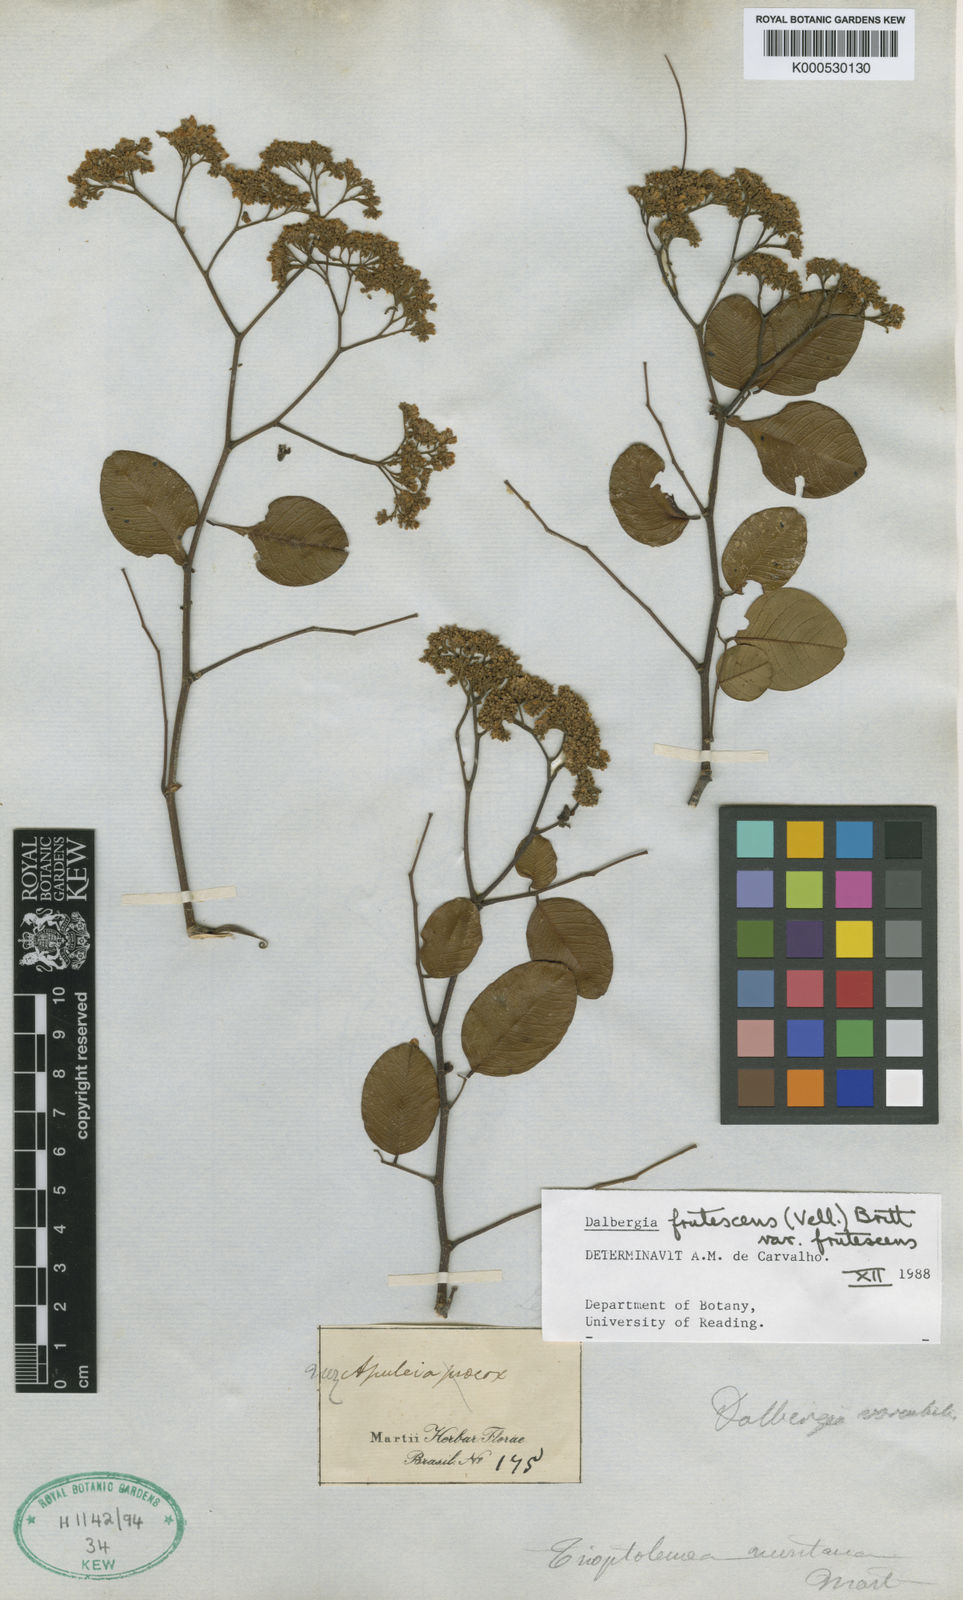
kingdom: Plantae
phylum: Tracheophyta
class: Magnoliopsida
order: Fabales
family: Fabaceae
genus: Dalbergia
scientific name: Dalbergia frutescens
